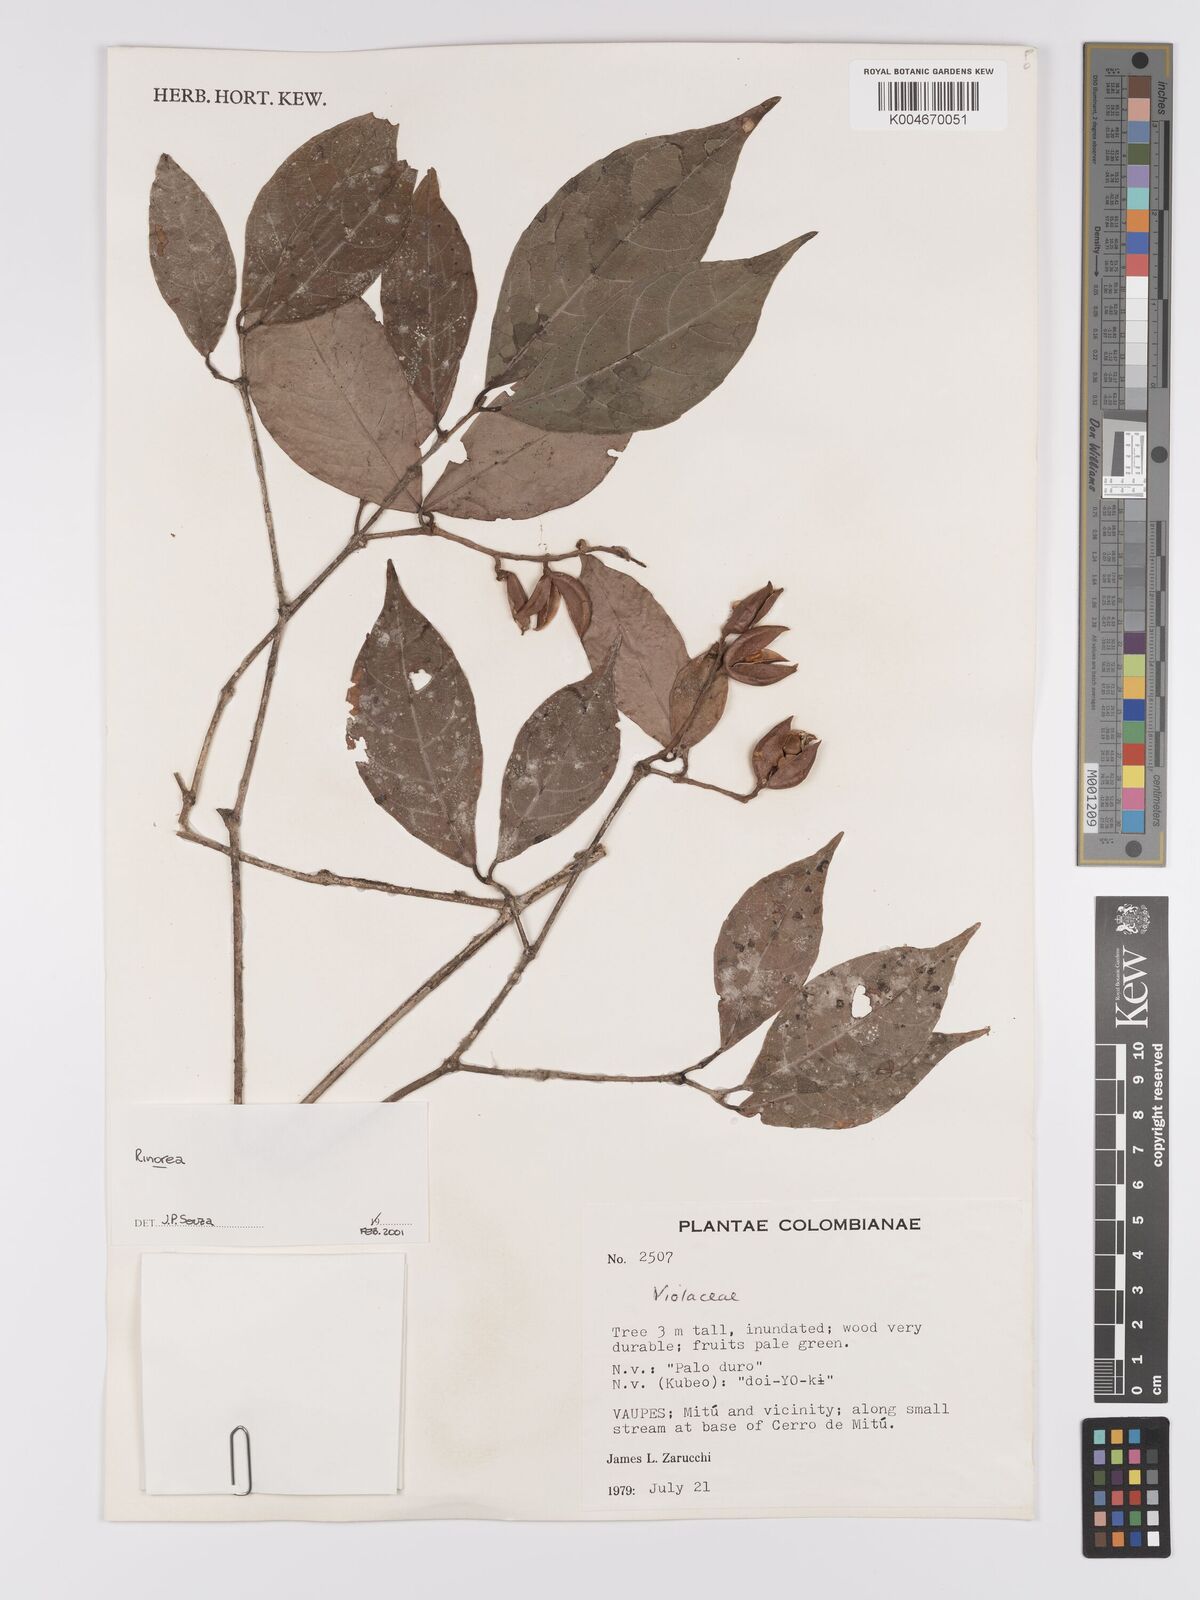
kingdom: Plantae
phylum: Tracheophyta
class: Magnoliopsida
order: Malpighiales
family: Violaceae
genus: Rinorea
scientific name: Rinorea
